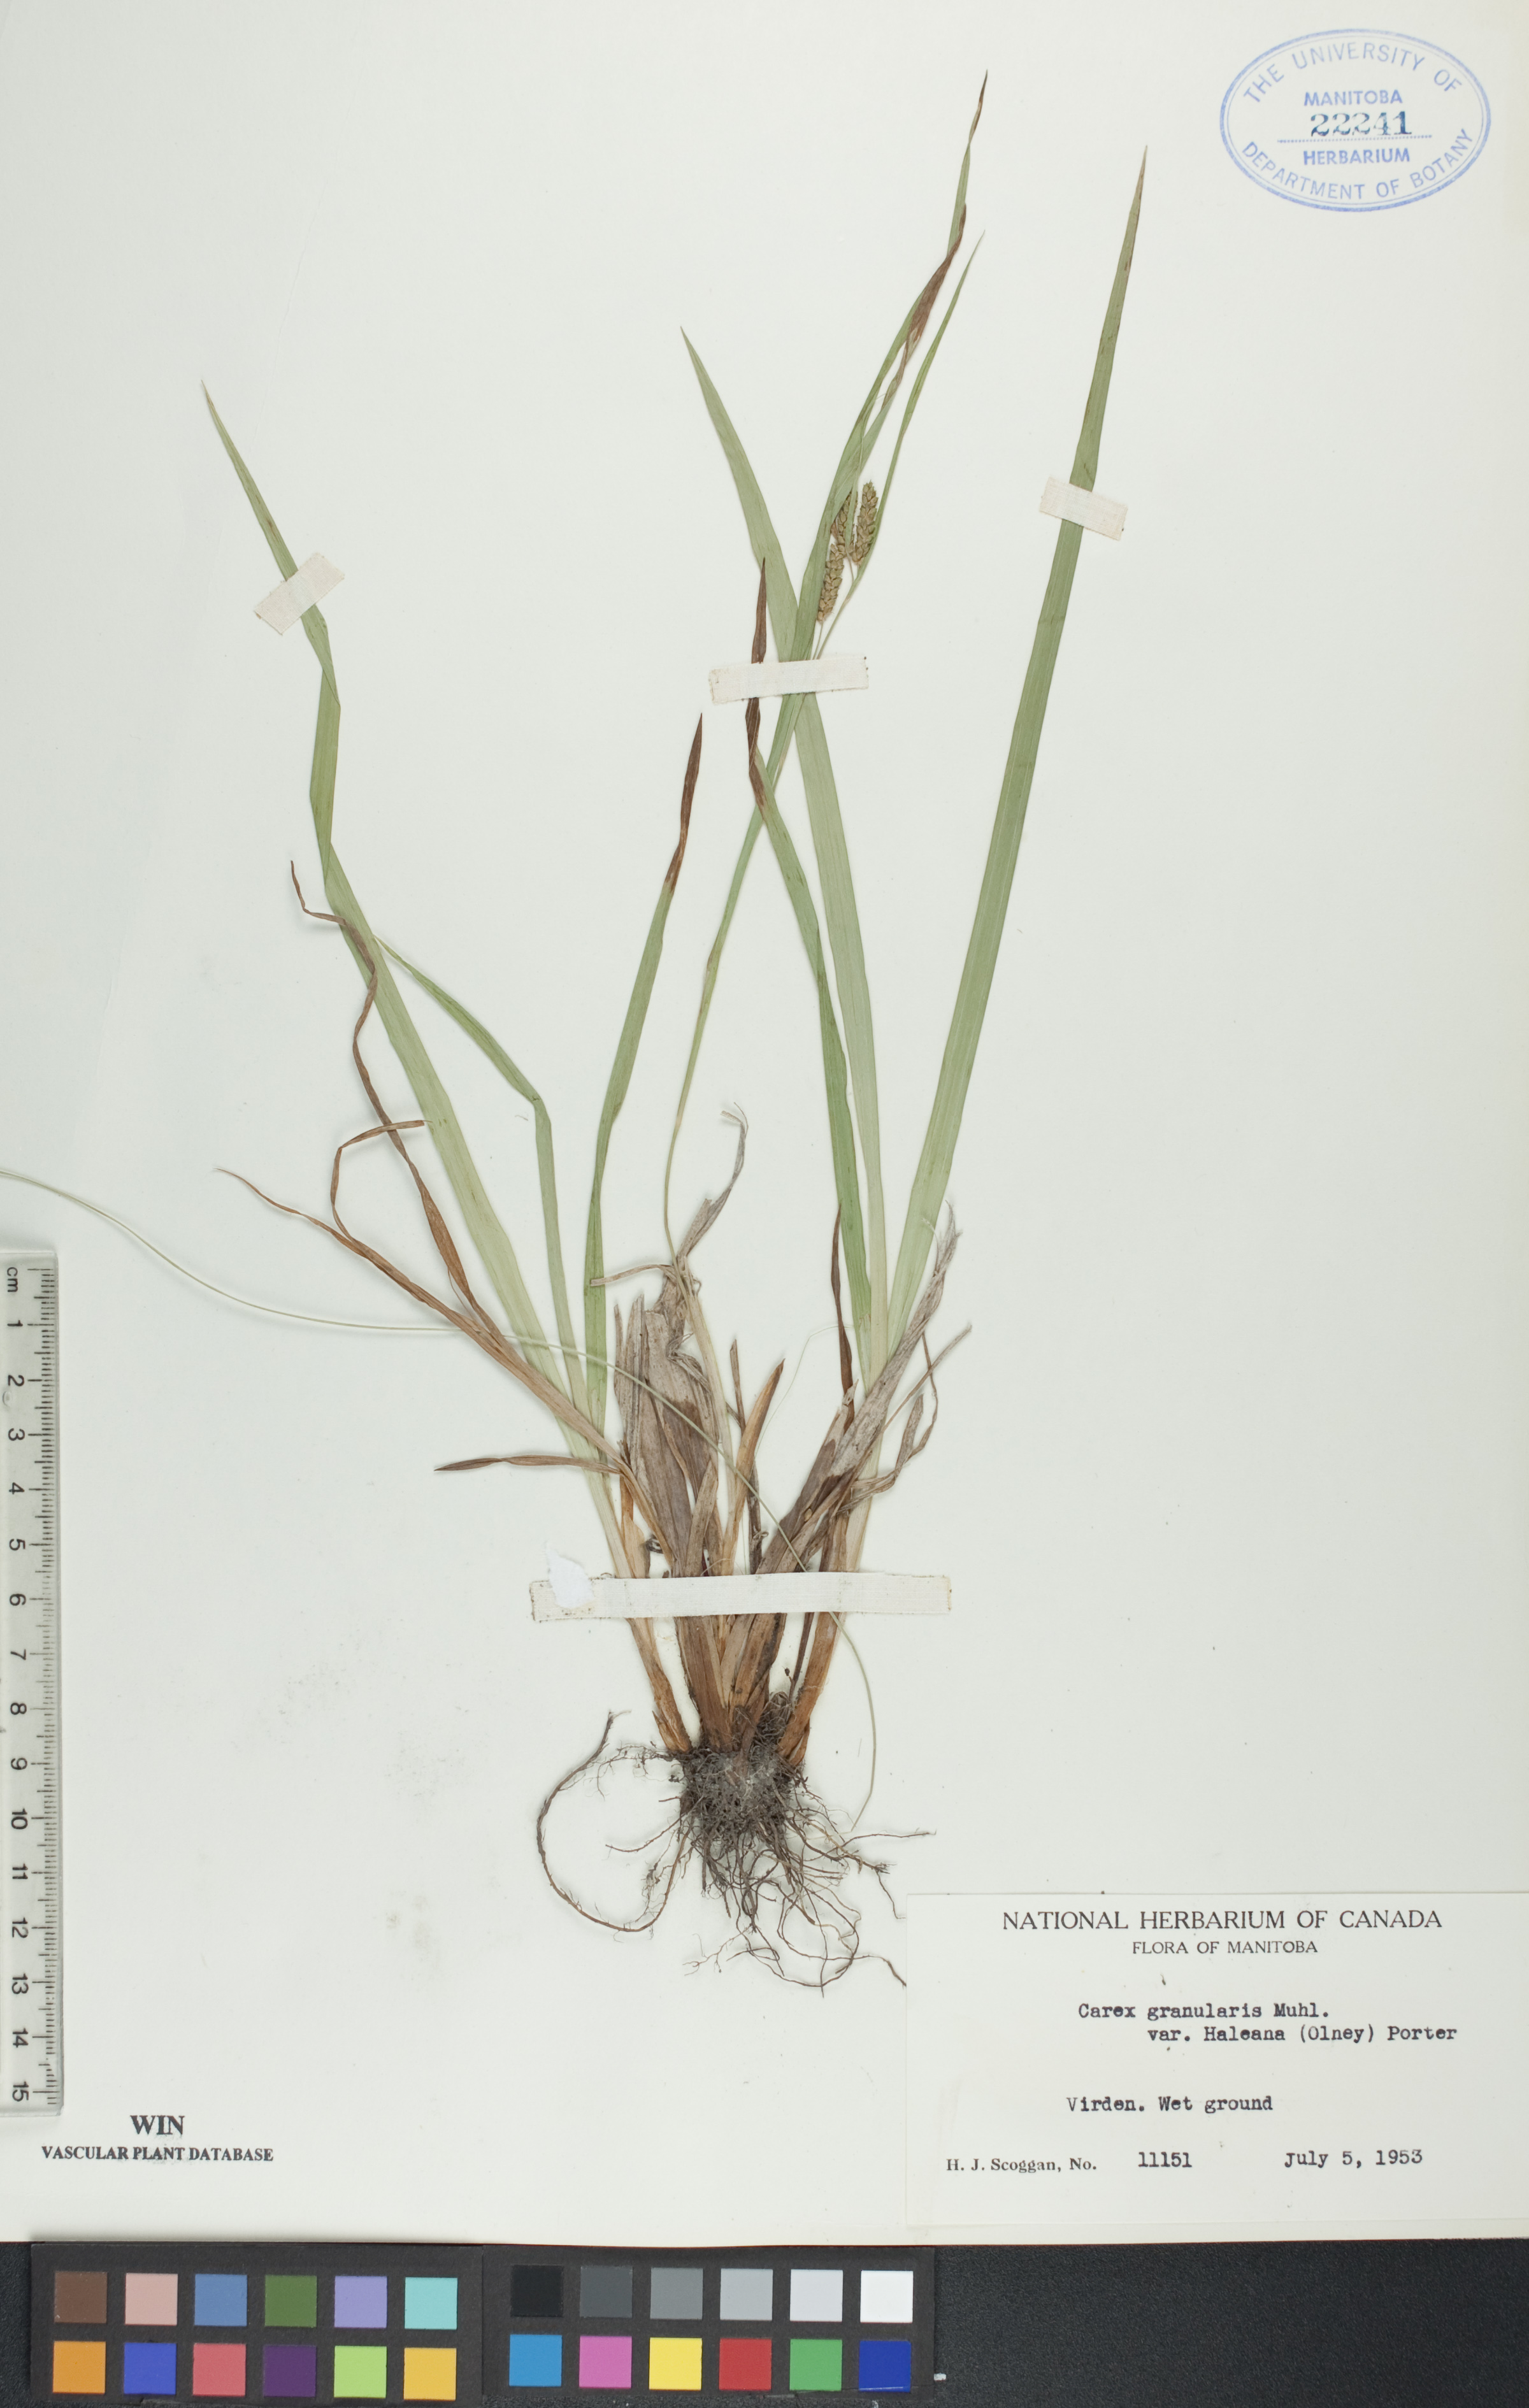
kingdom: Plantae
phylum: Tracheophyta
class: Liliopsida
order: Poales
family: Cyperaceae
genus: Carex
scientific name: Carex granularis
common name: Granular sedge
